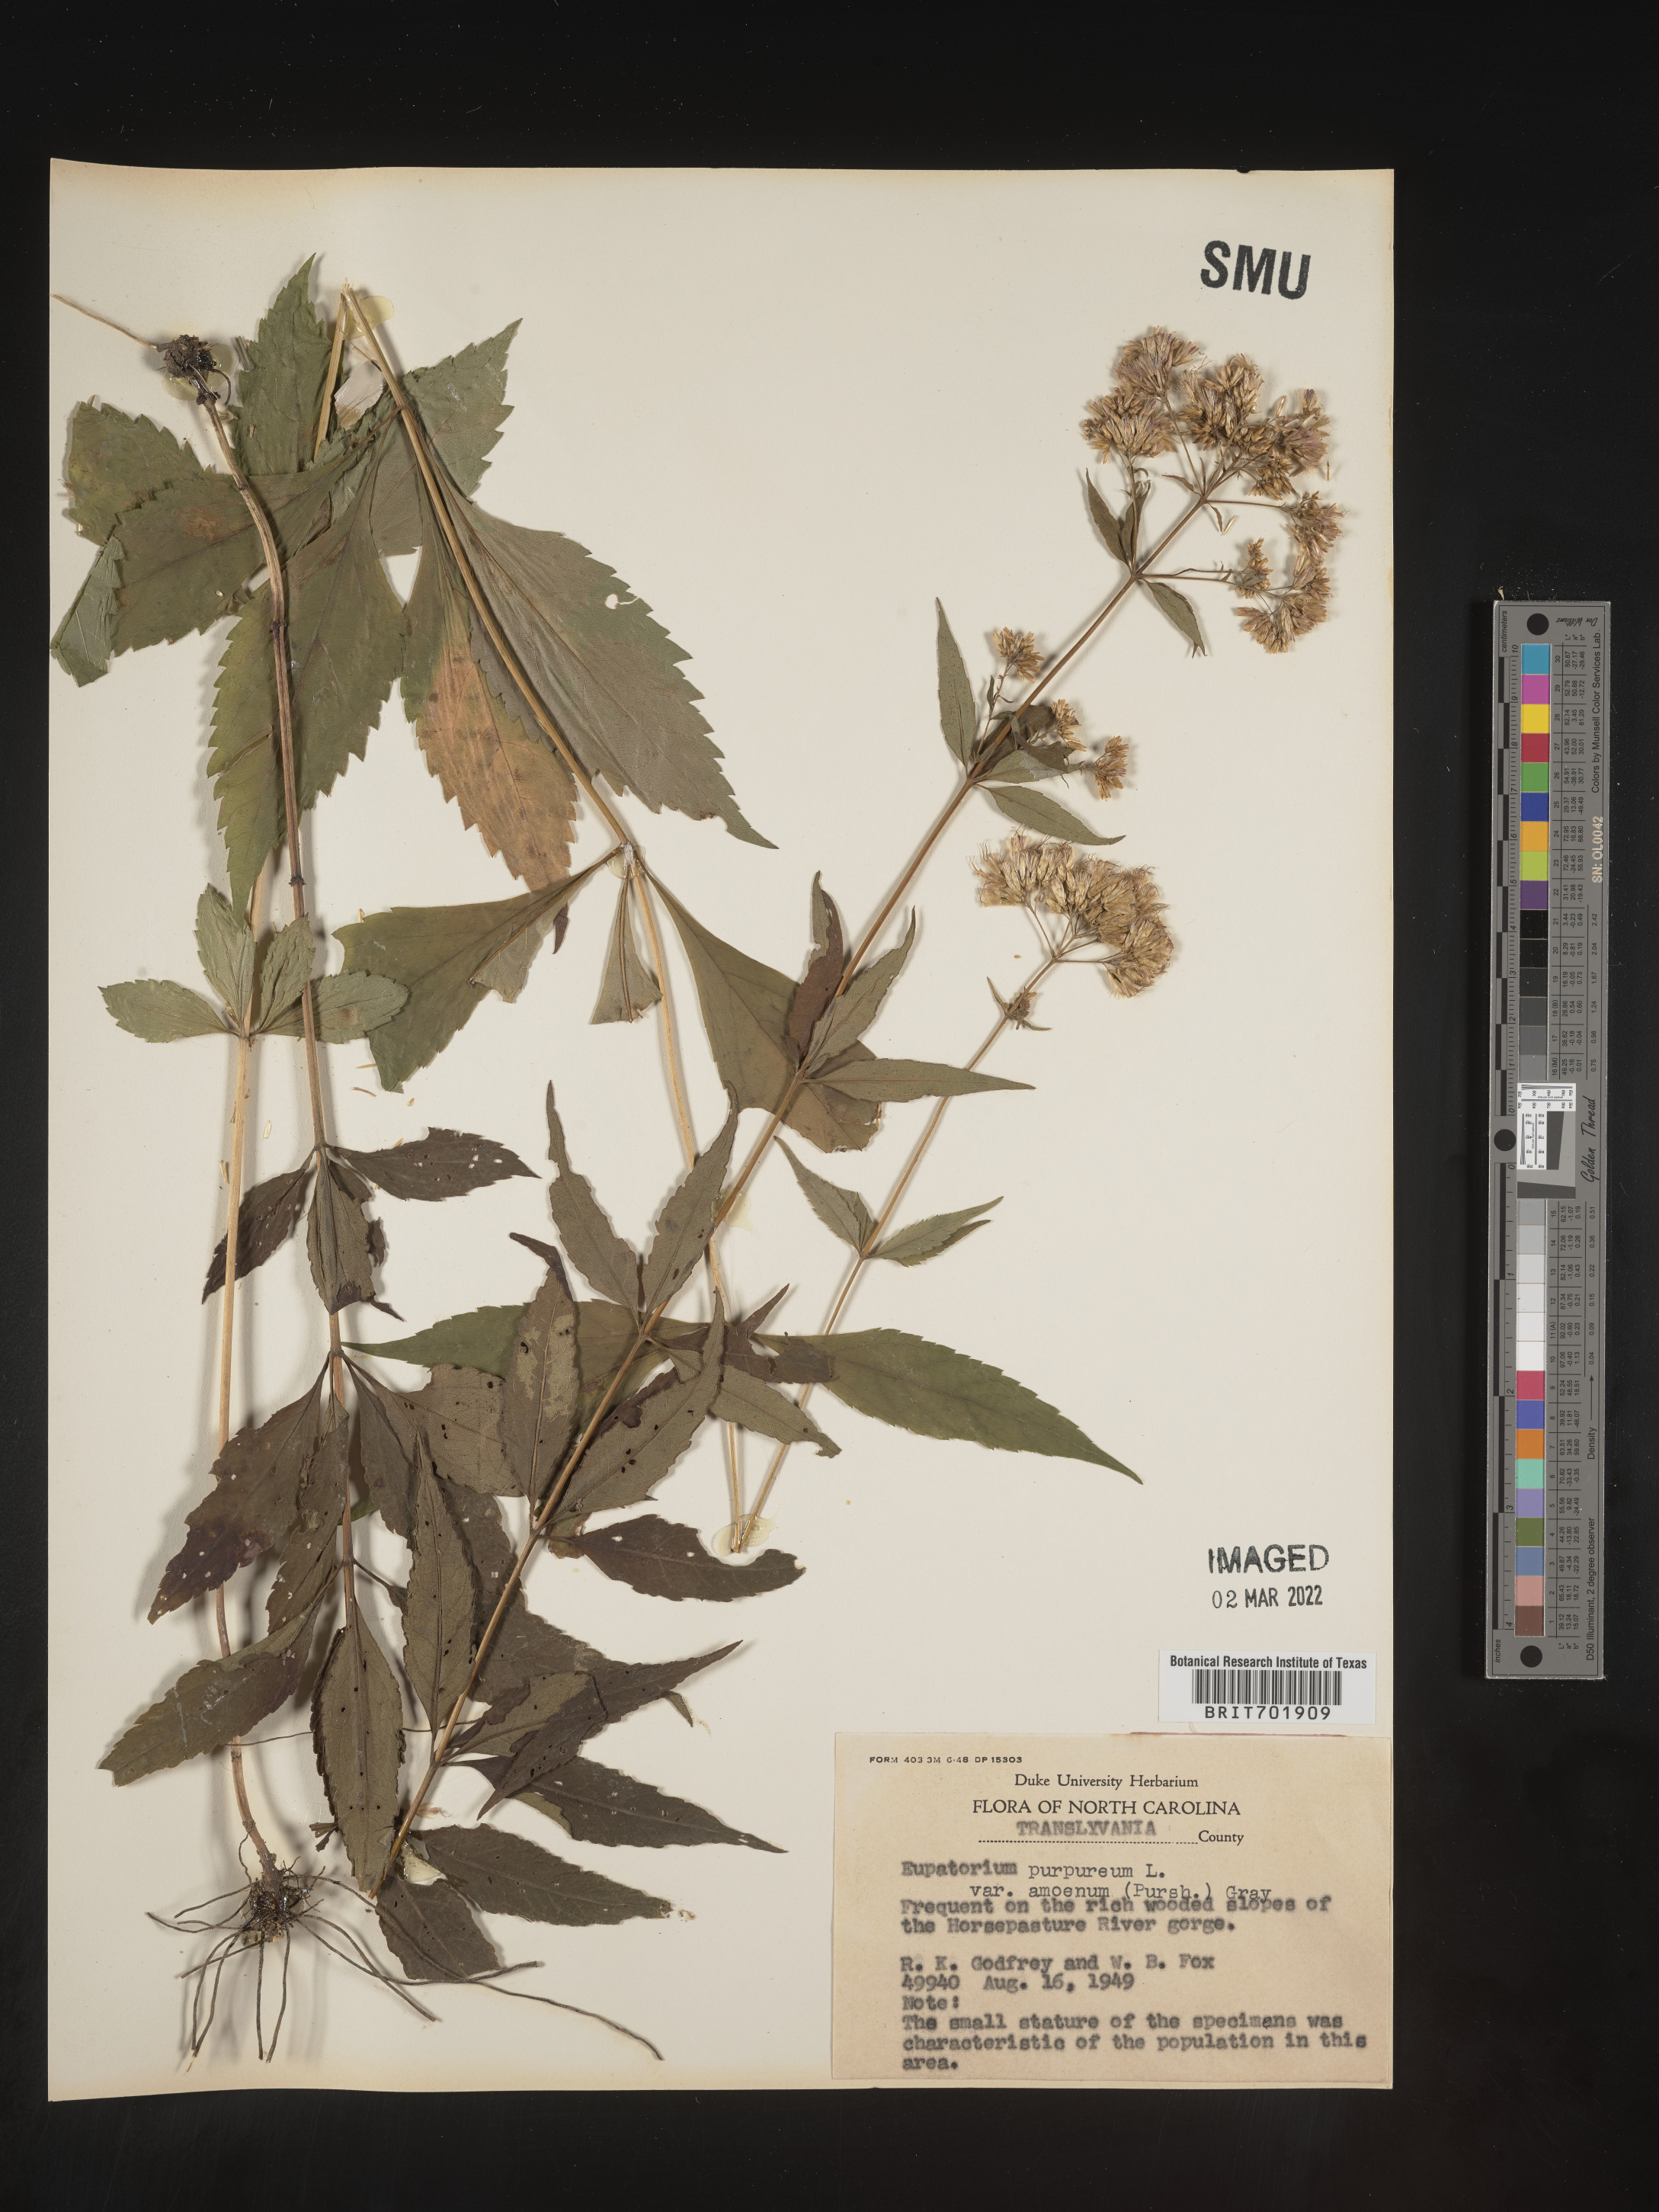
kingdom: Plantae
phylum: Tracheophyta
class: Magnoliopsida
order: Asterales
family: Asteraceae
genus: Eupatorium
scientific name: Eupatorium quaternum
